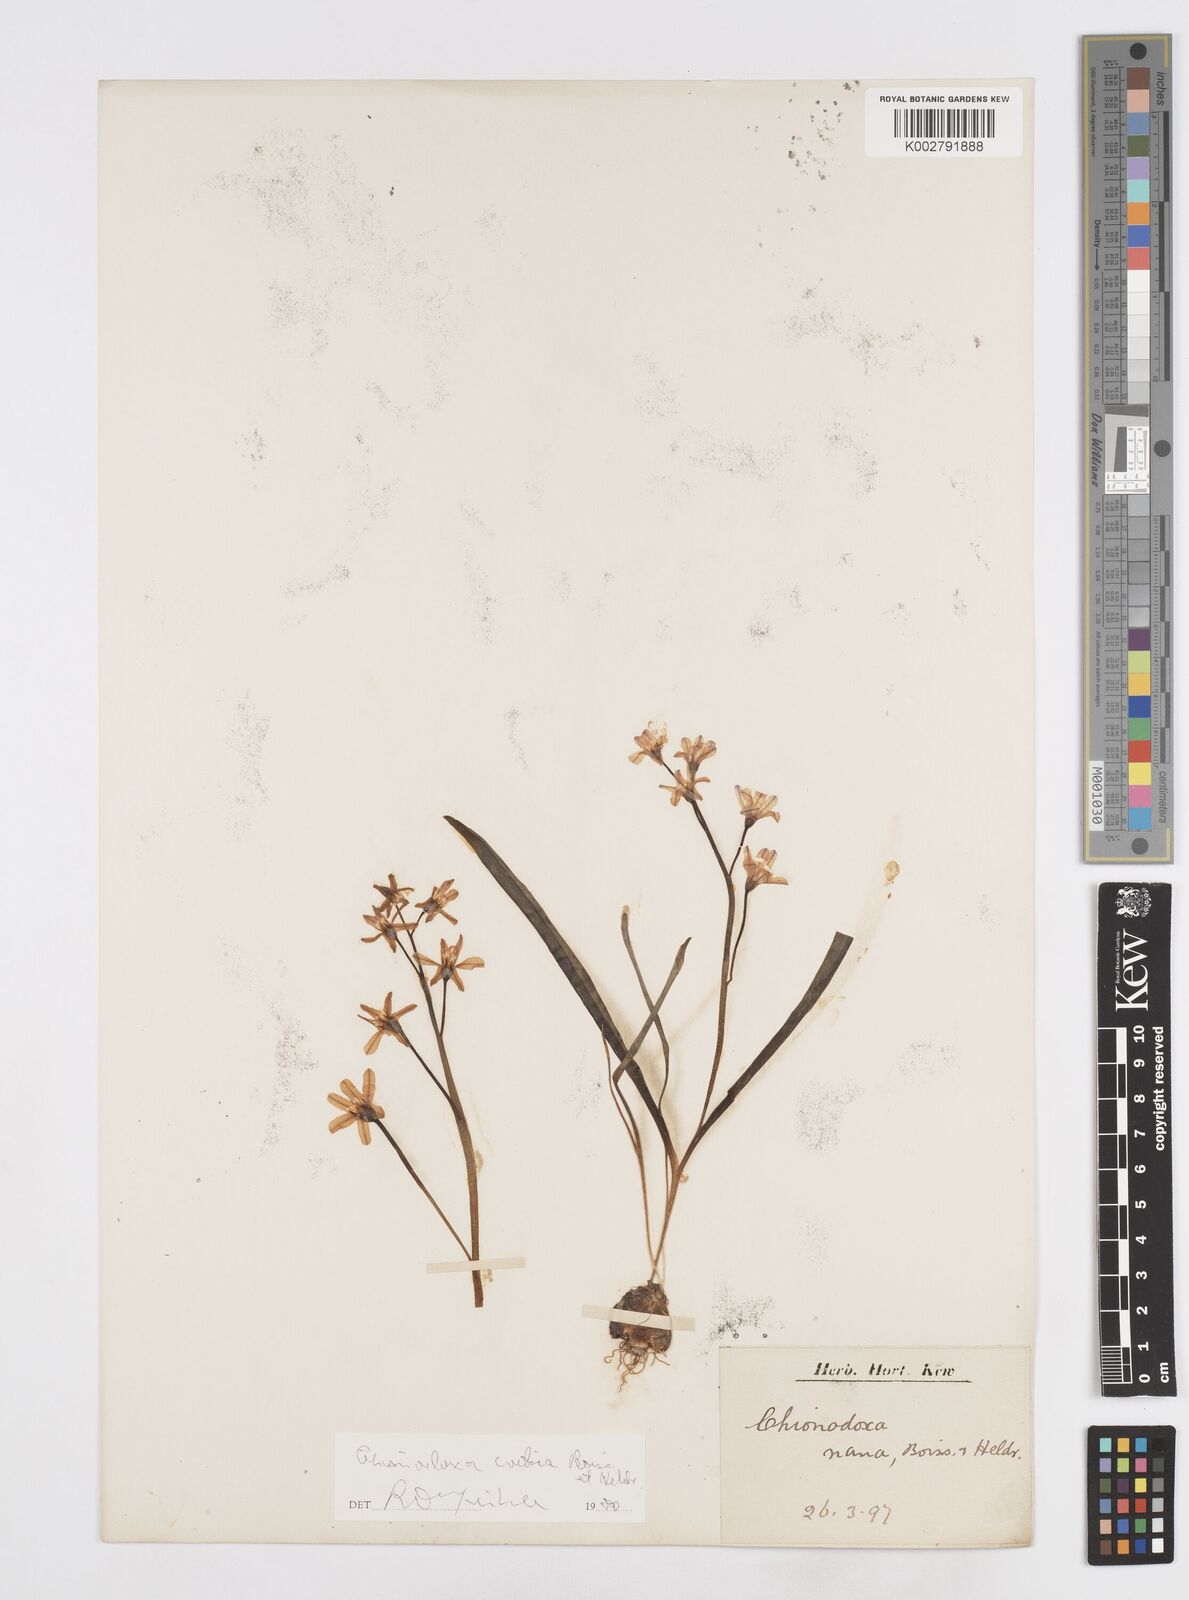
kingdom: Plantae
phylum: Tracheophyta
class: Liliopsida
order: Asparagales
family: Asparagaceae
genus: Scilla
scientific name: Scilla cretica
